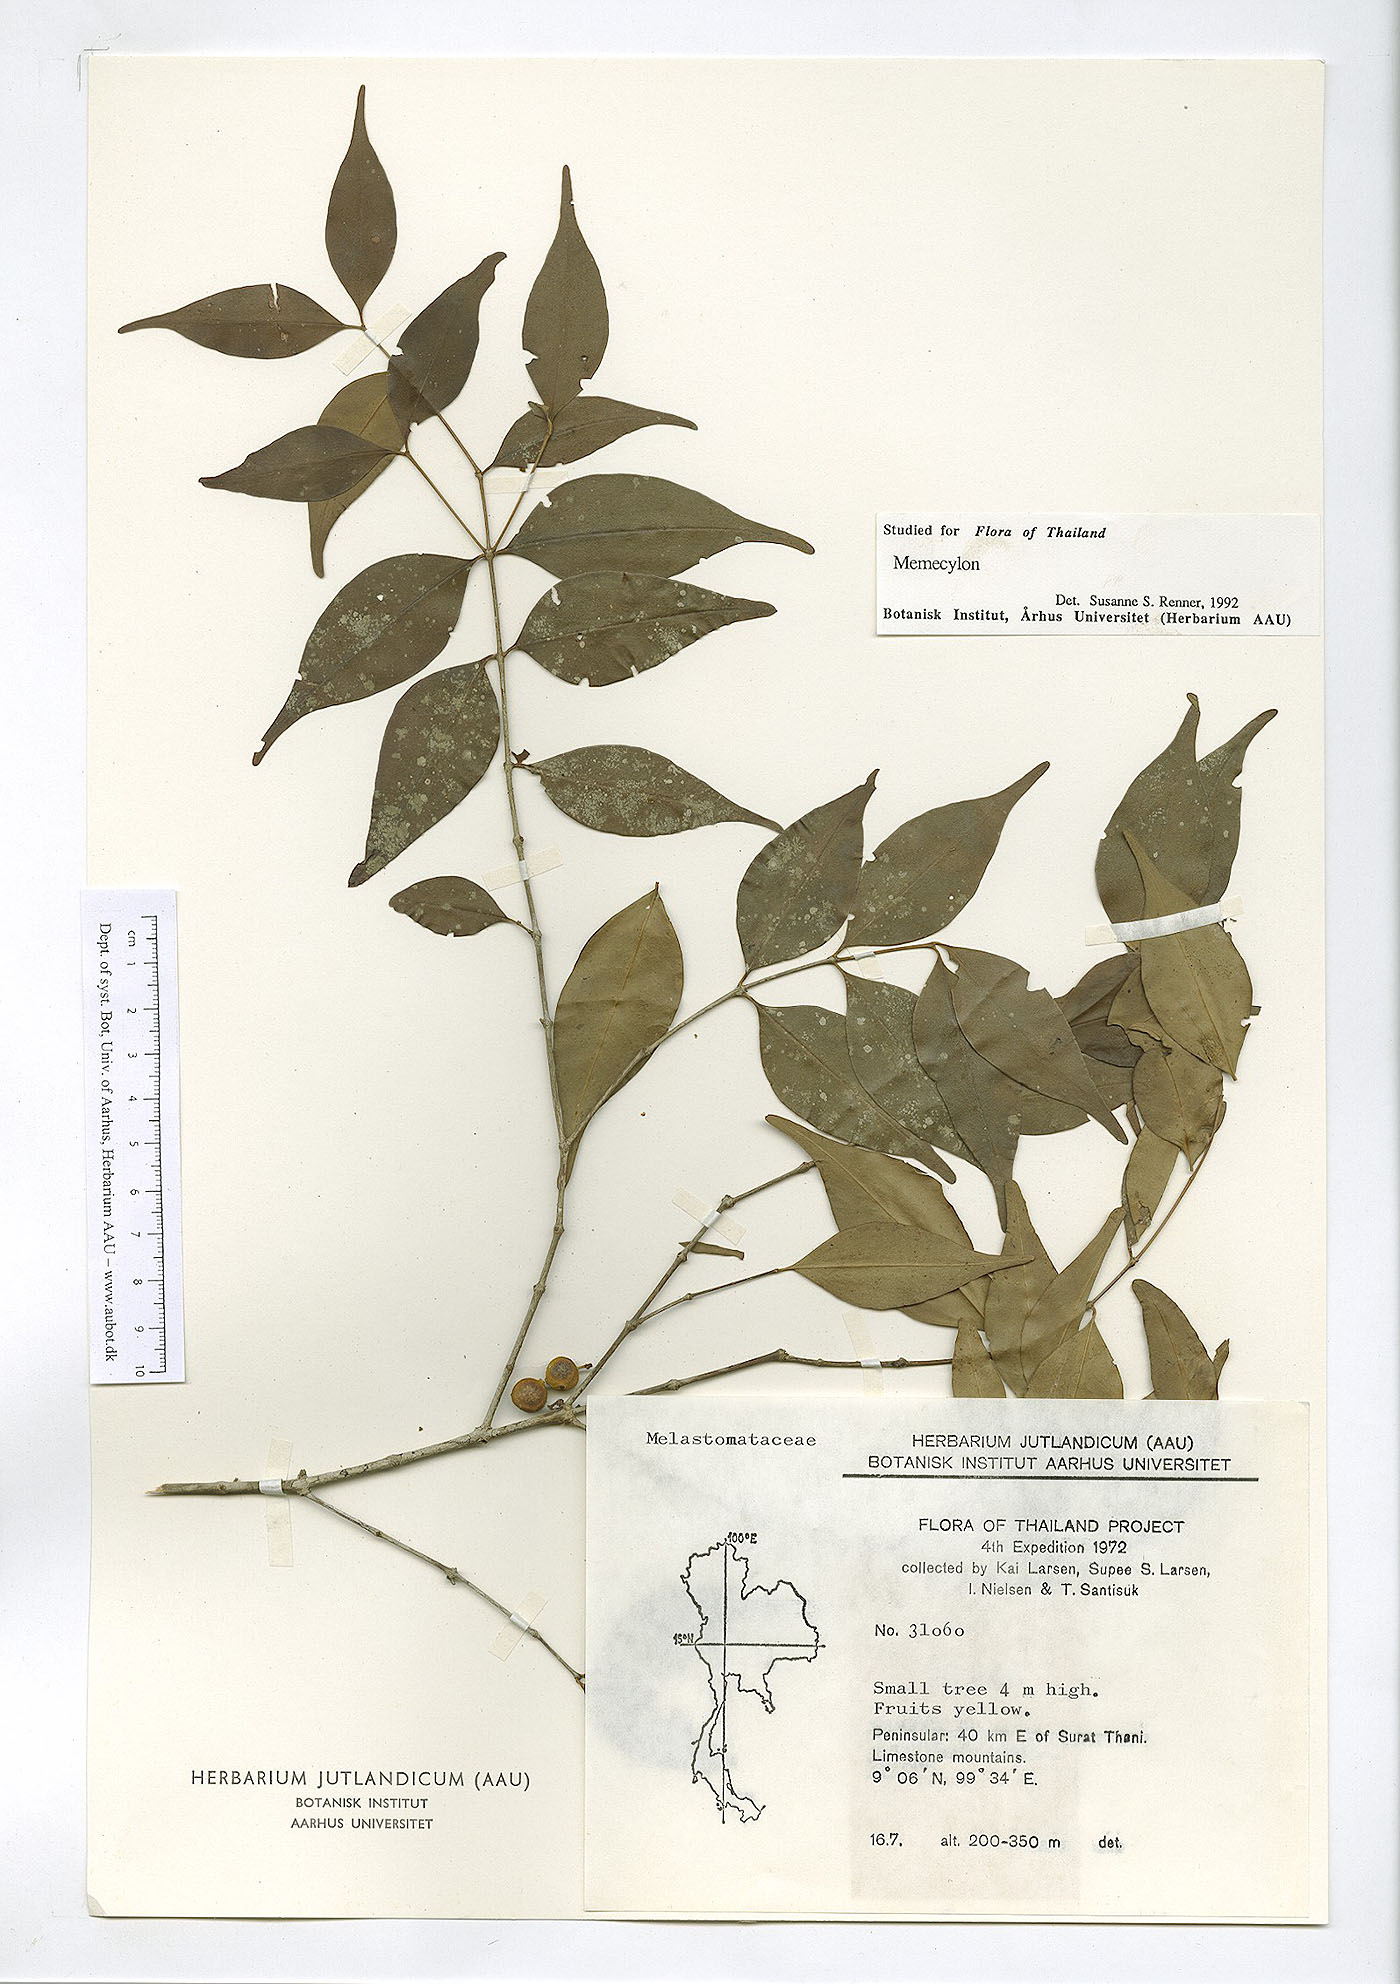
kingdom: Plantae
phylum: Tracheophyta
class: Magnoliopsida
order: Myrtales
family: Melastomataceae
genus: Memecylon
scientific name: Memecylon plebejum
